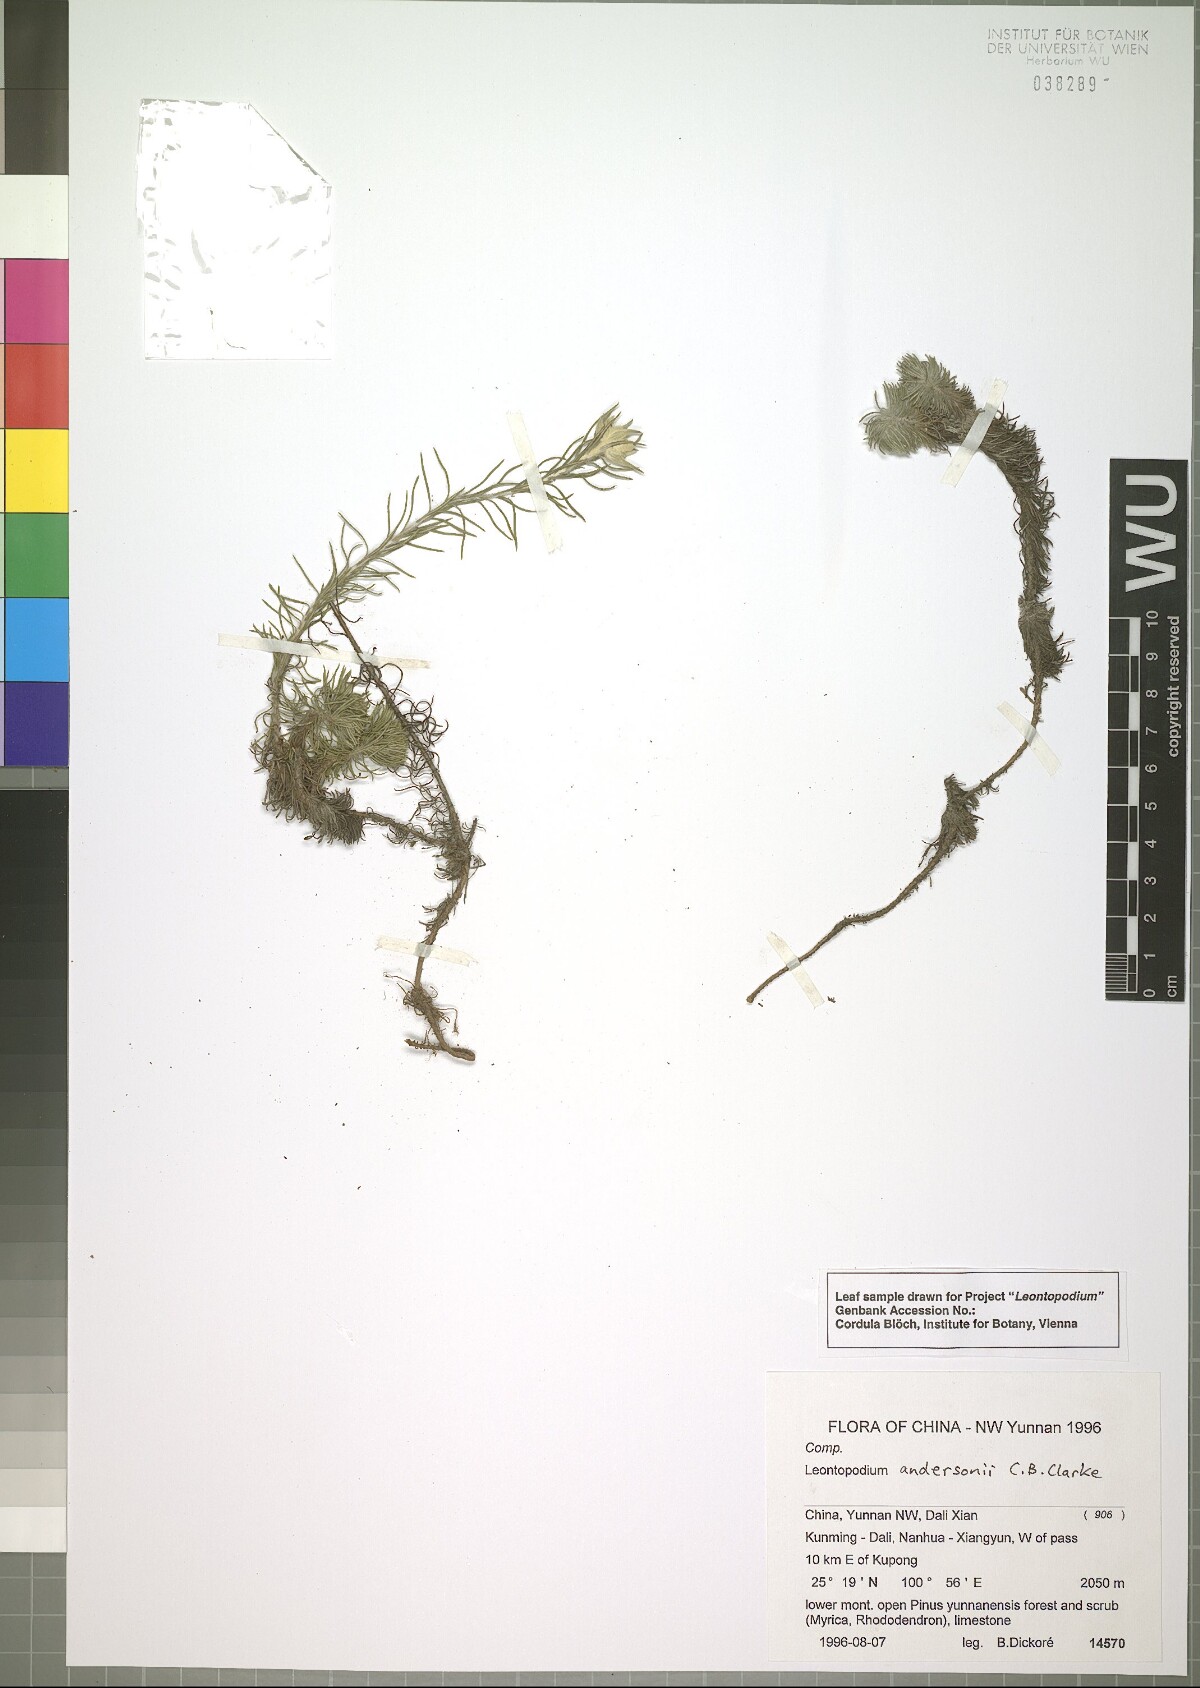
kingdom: Plantae
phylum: Tracheophyta
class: Magnoliopsida
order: Asterales
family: Asteraceae
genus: Leontopodium
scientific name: Leontopodium andersonii
